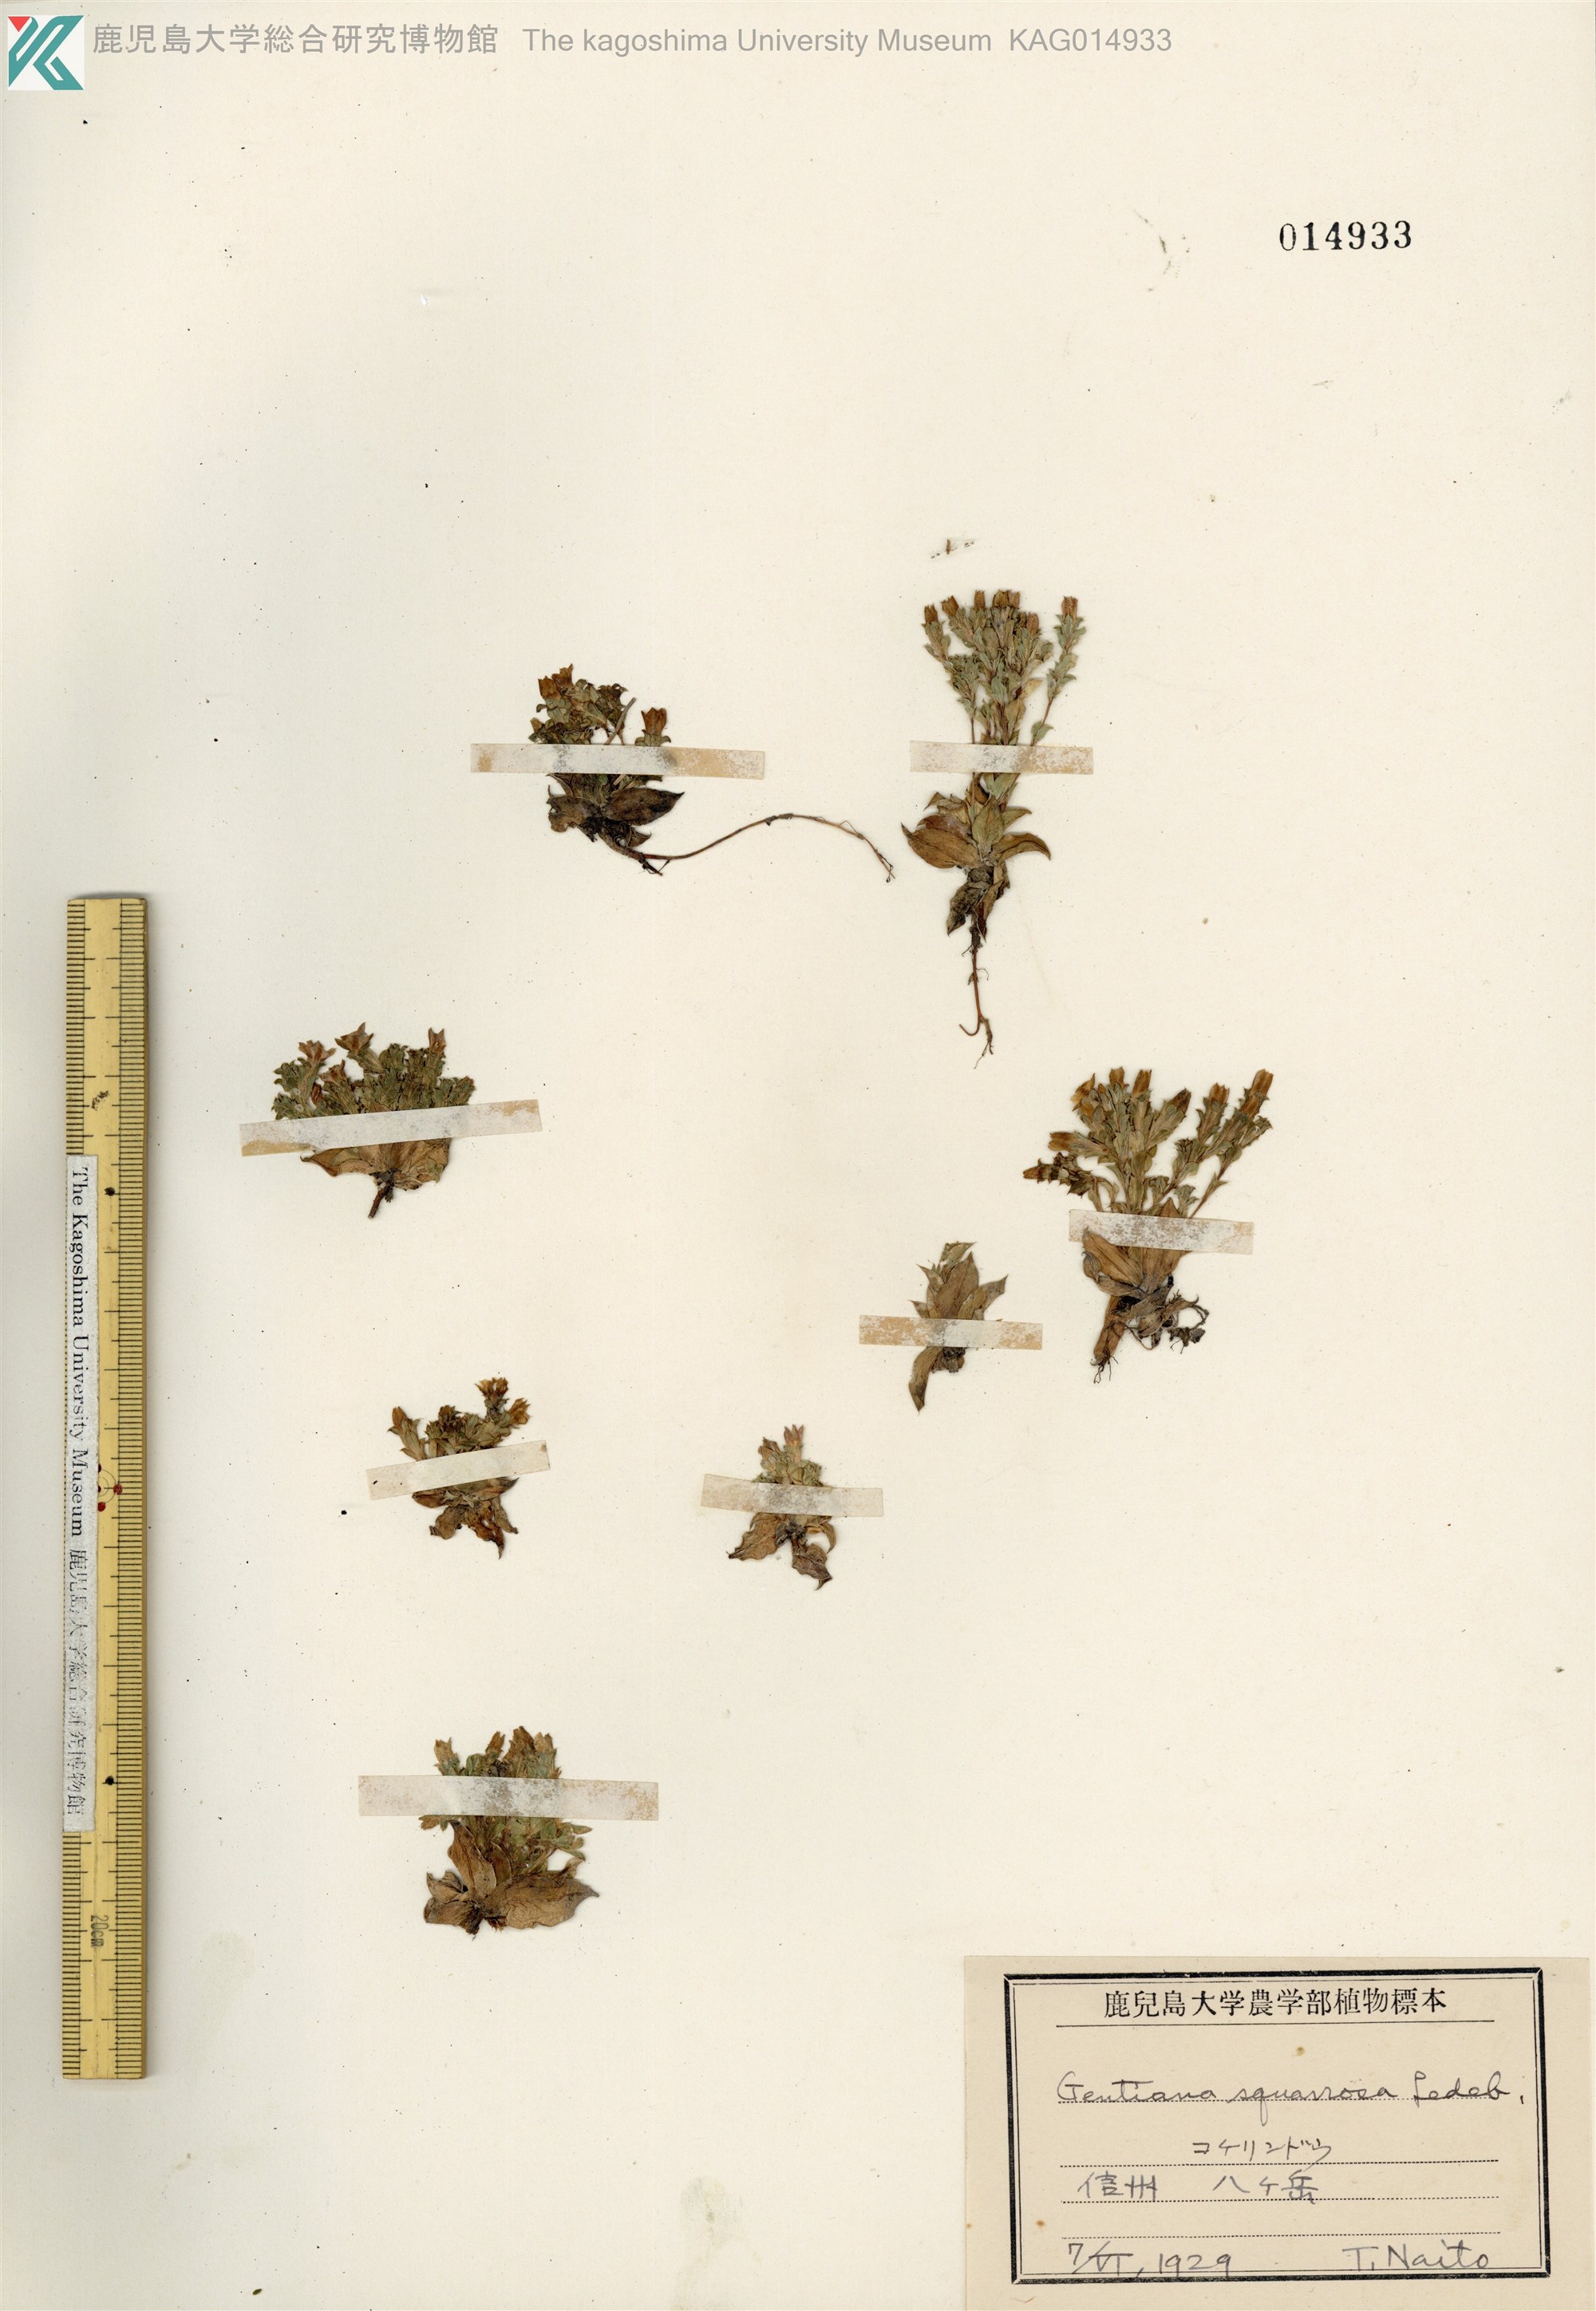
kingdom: Plantae
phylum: Tracheophyta
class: Magnoliopsida
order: Gentianales
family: Gentianaceae
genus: Gentiana
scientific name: Gentiana squarrosa
